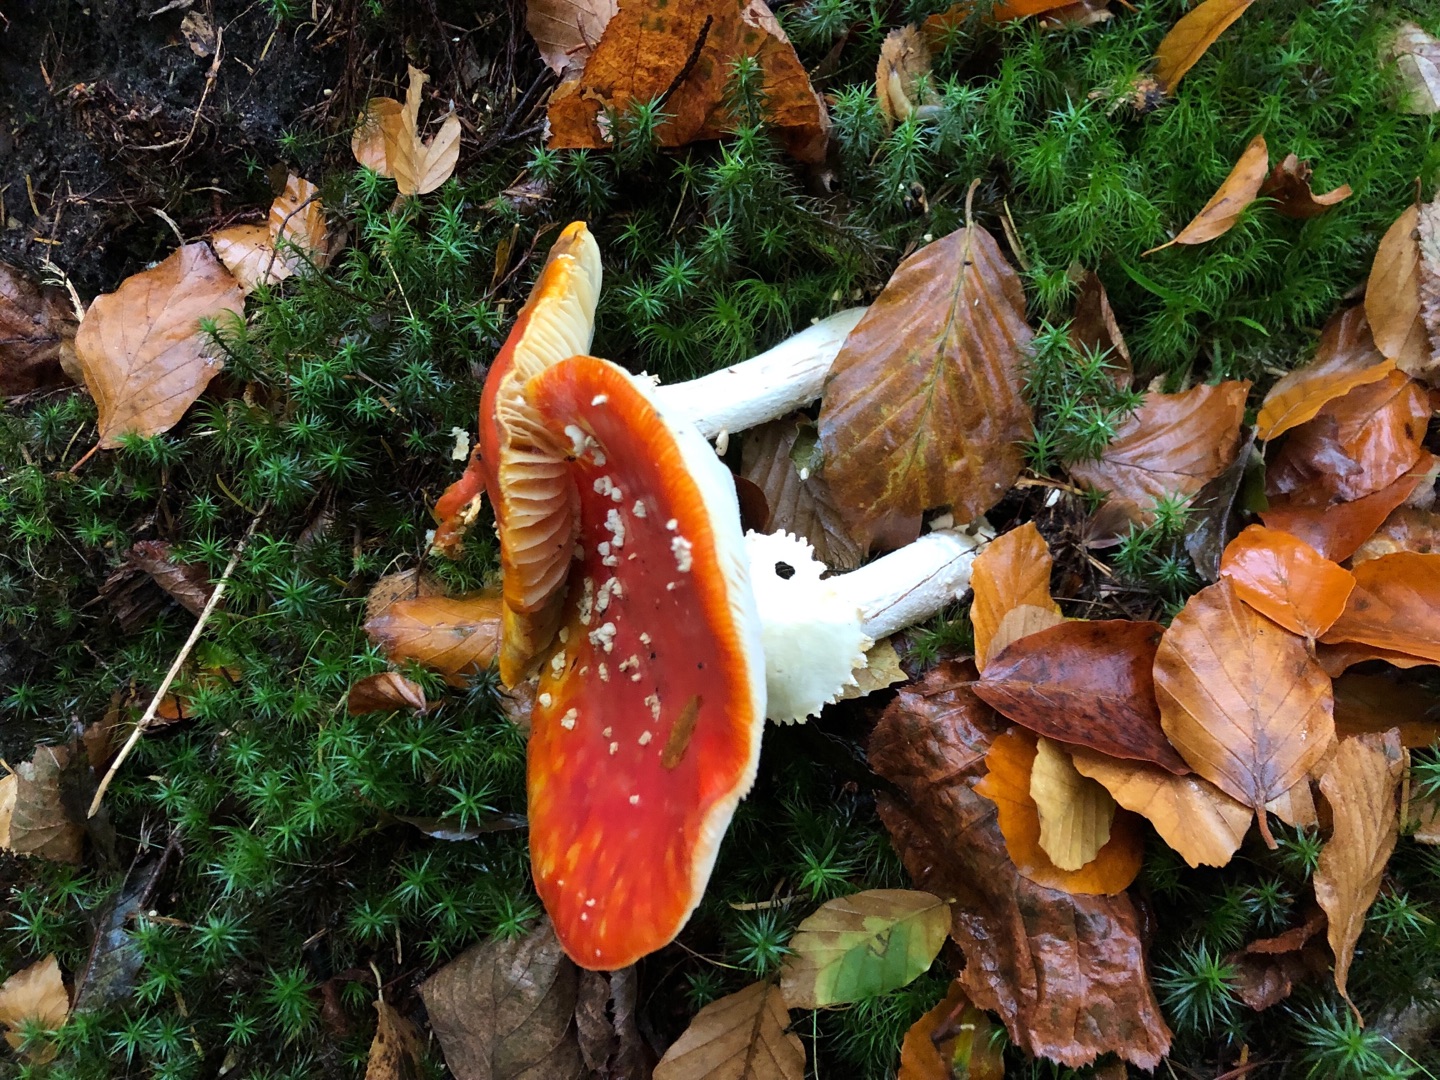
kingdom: Fungi
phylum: Basidiomycota
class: Agaricomycetes
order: Agaricales
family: Amanitaceae
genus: Amanita
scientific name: Amanita muscaria
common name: Rød fluesvamp
